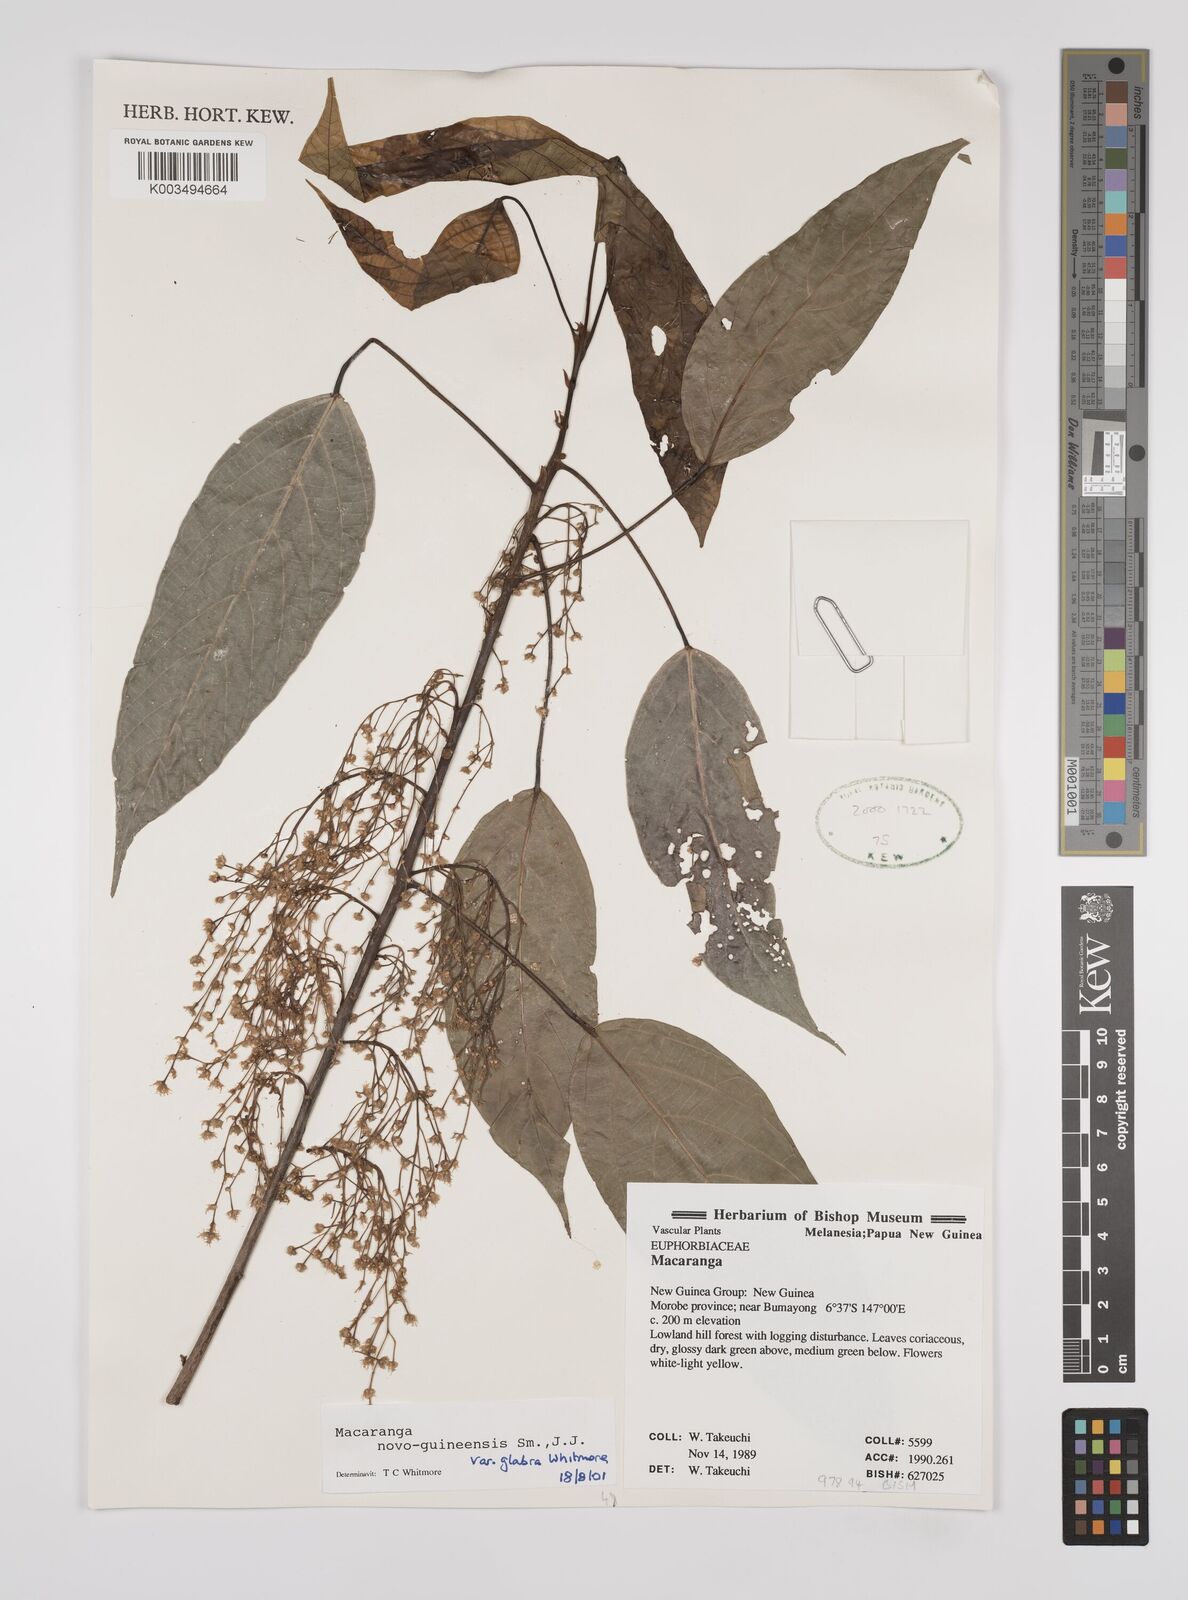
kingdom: Plantae
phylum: Tracheophyta
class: Magnoliopsida
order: Malpighiales
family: Euphorbiaceae
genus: Macaranga
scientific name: Macaranga novoguineensis
